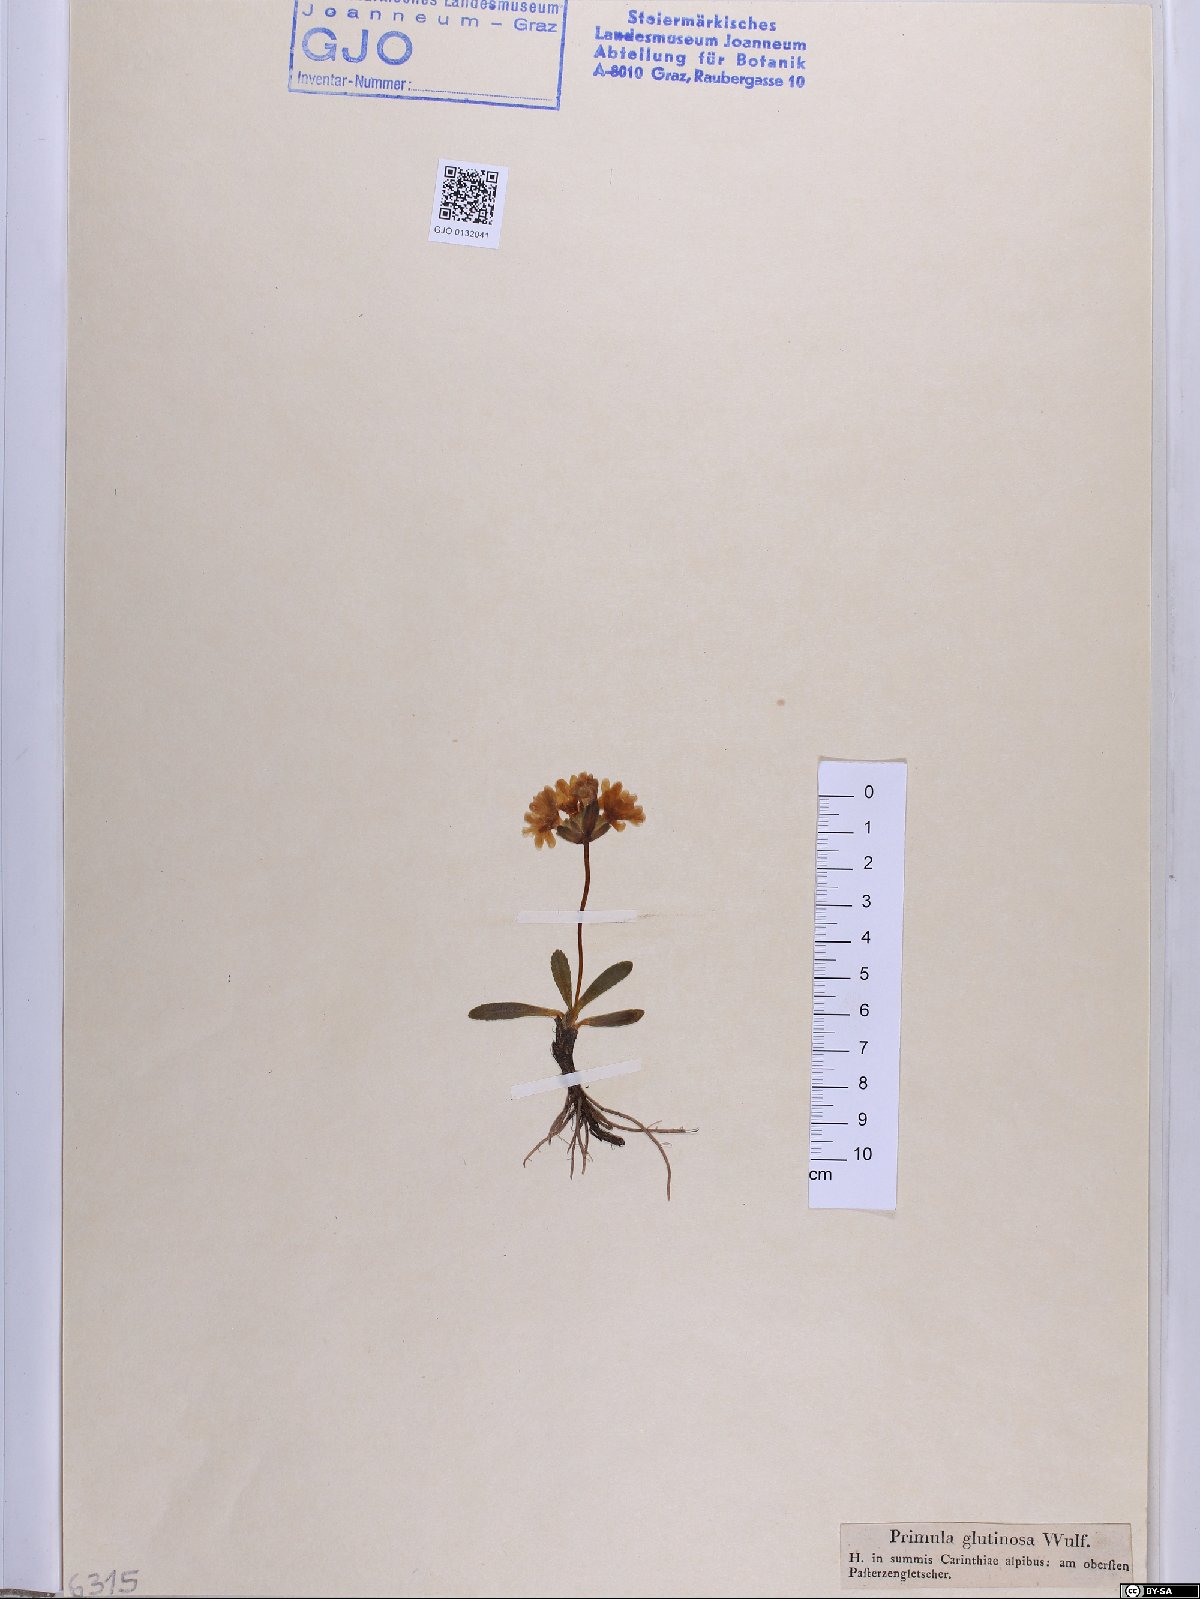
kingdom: Plantae
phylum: Tracheophyta
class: Magnoliopsida
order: Ericales
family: Primulaceae
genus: Primula
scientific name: Primula glutinosa
